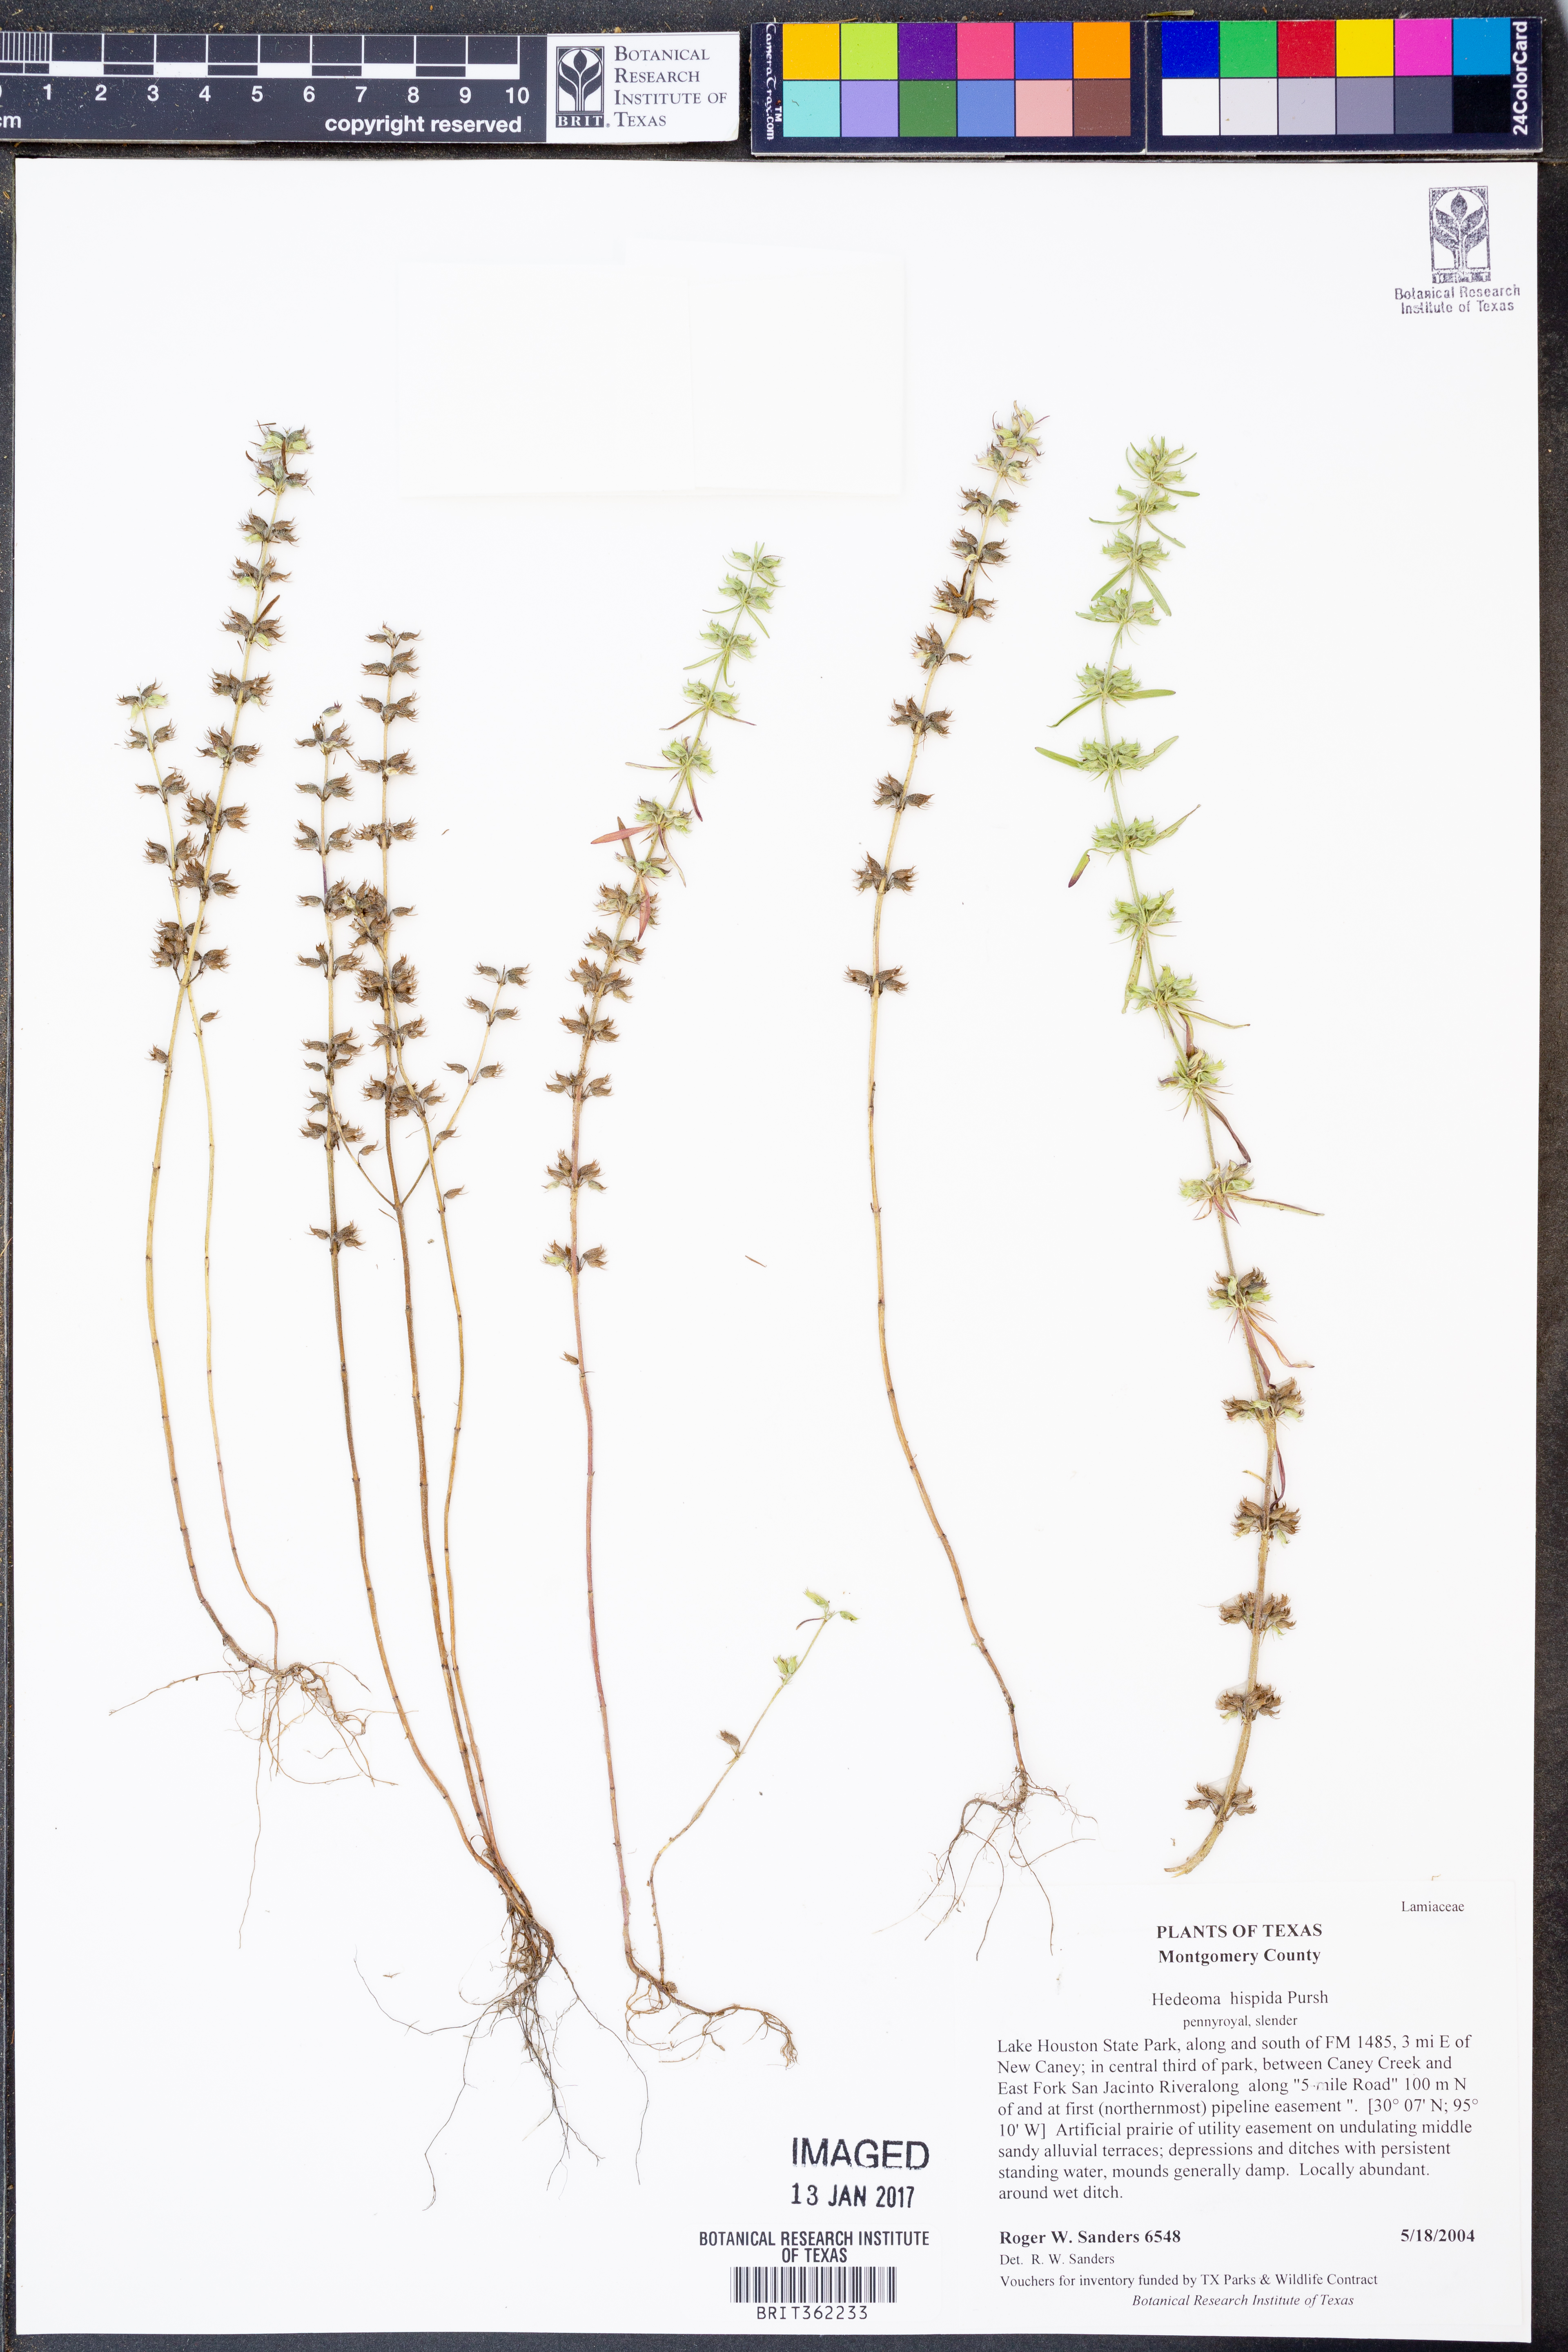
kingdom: Plantae
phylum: Tracheophyta
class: Magnoliopsida
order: Lamiales
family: Lamiaceae
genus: Hedeoma
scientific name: Hedeoma hispida
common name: Mock pennyroyal
